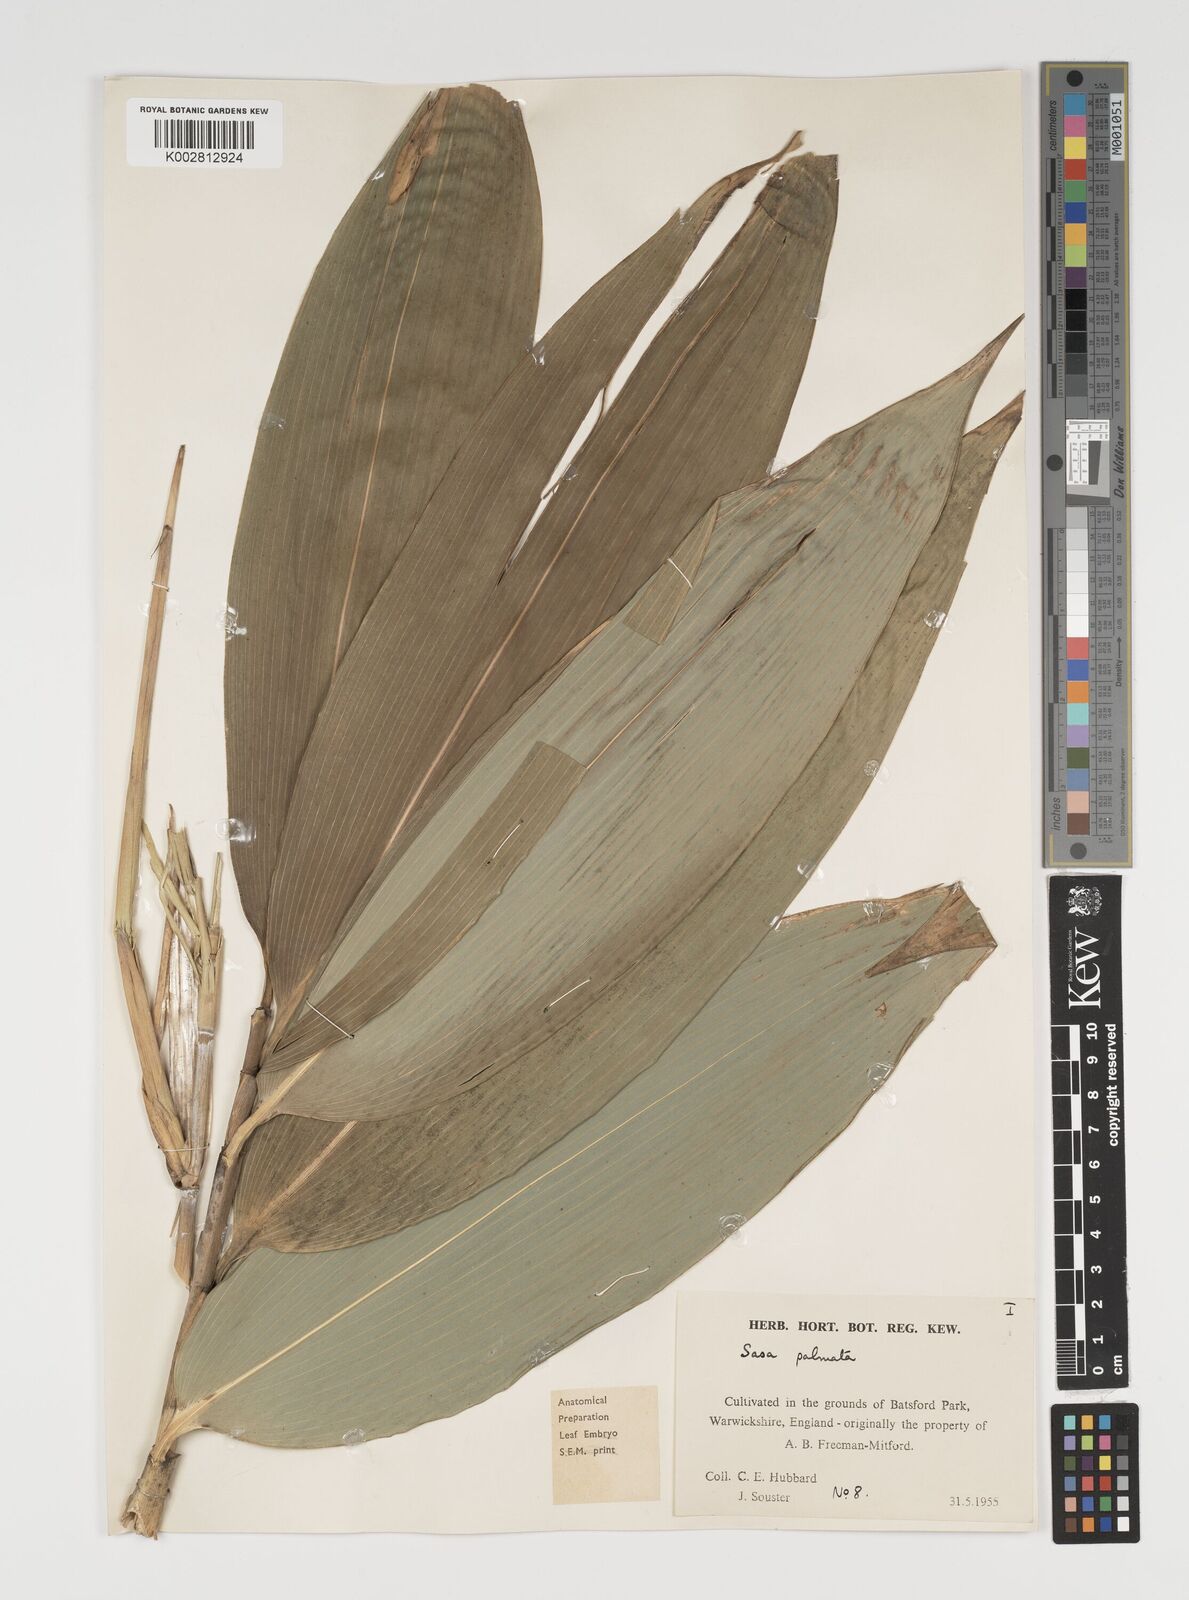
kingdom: Plantae
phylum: Tracheophyta
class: Liliopsida
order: Poales
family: Poaceae
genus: Sasa
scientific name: Sasa palmata
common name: Broad-leaved bamboo
